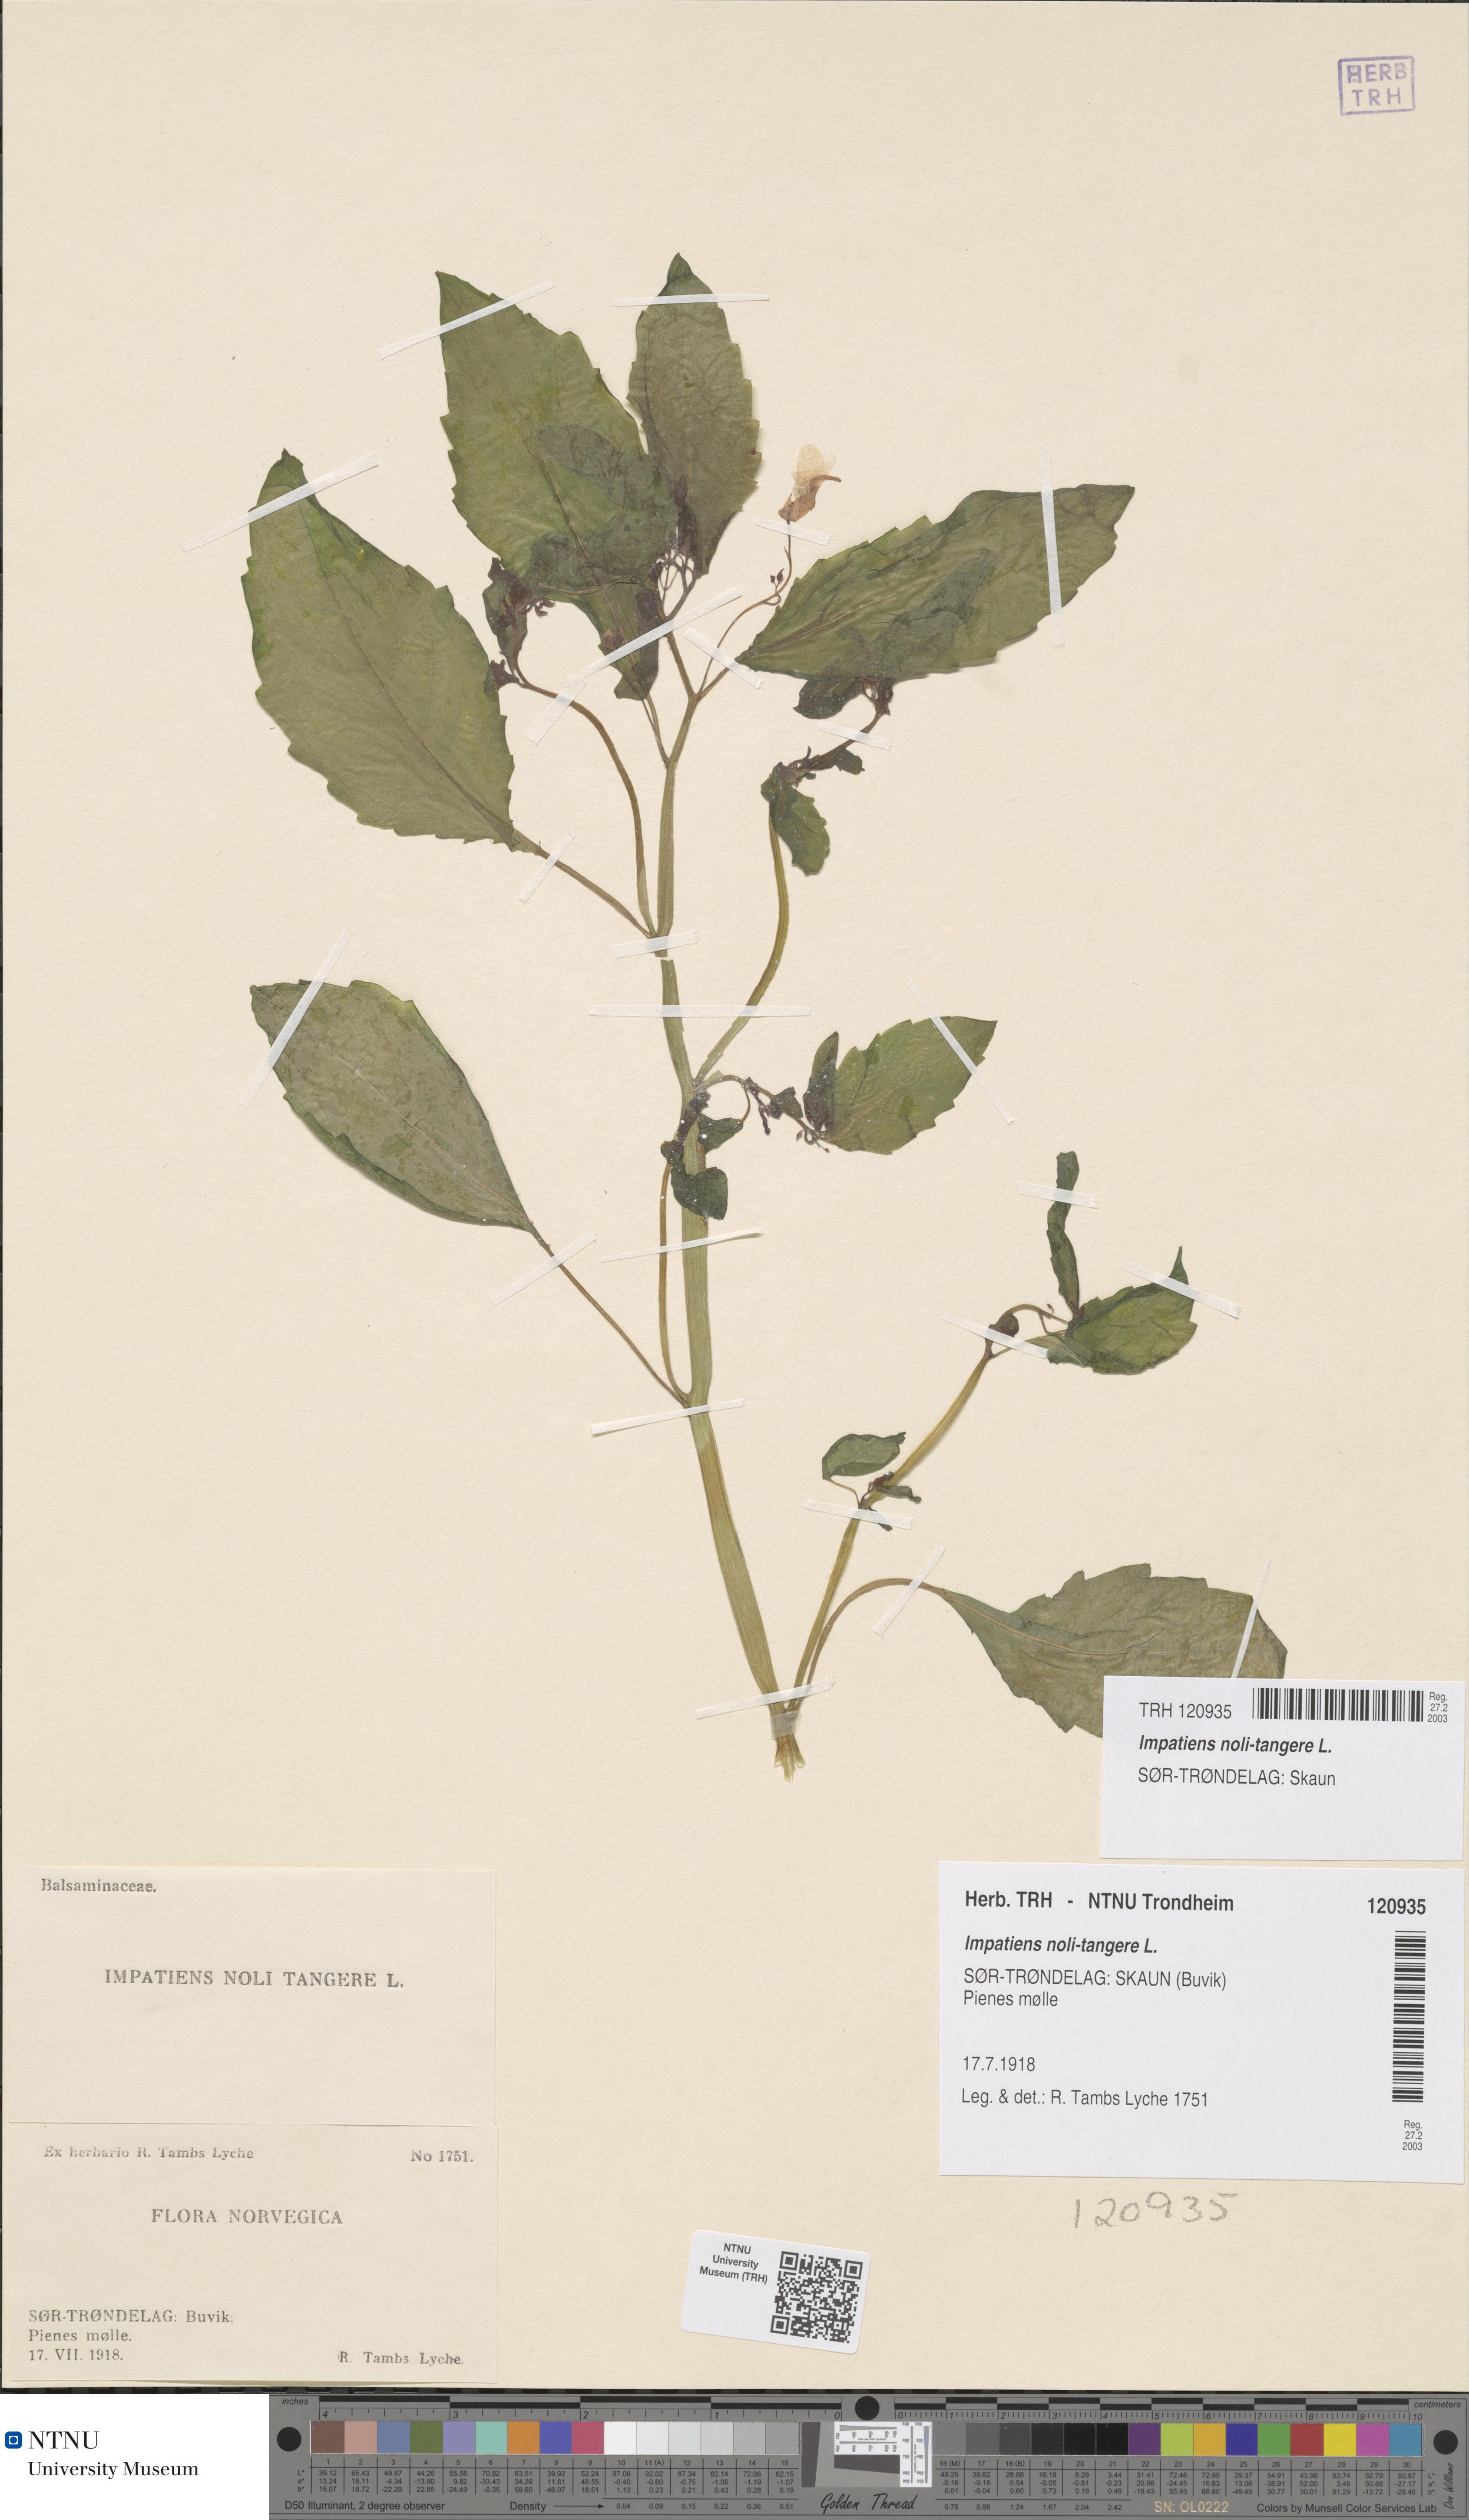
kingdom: Plantae
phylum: Tracheophyta
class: Magnoliopsida
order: Ericales
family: Balsaminaceae
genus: Impatiens
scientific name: Impatiens noli-tangere
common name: Touch-me-not balsam
